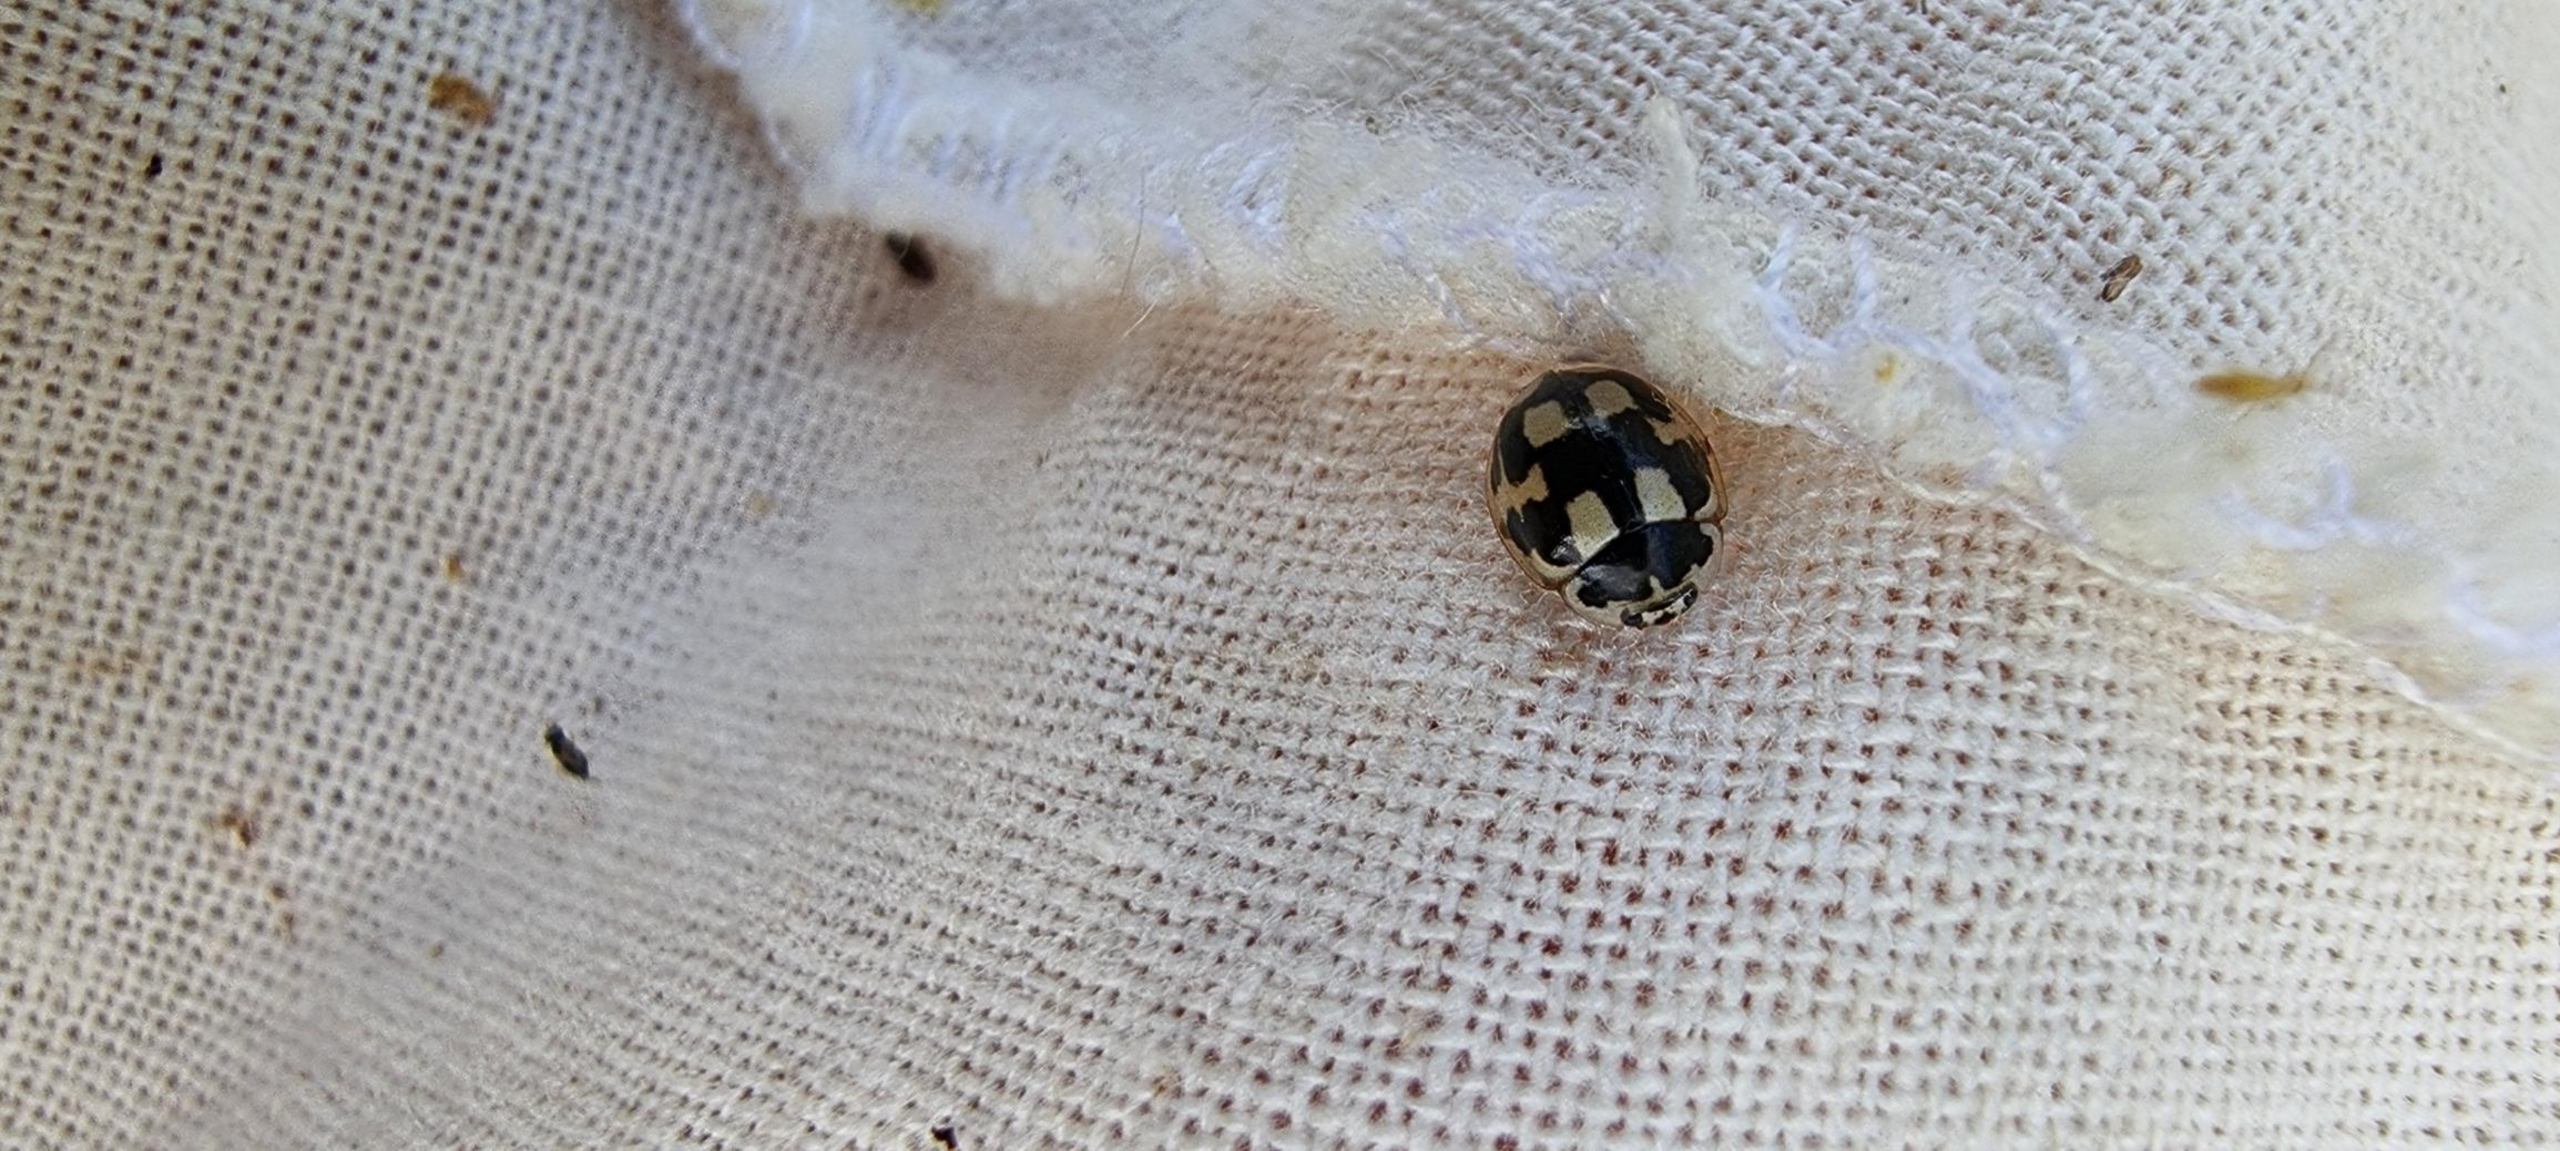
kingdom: Animalia
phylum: Arthropoda
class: Insecta
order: Coleoptera
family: Coccinellidae
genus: Propylaea
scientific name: Propylaea quatuordecimpunctata
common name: Skakbræt
